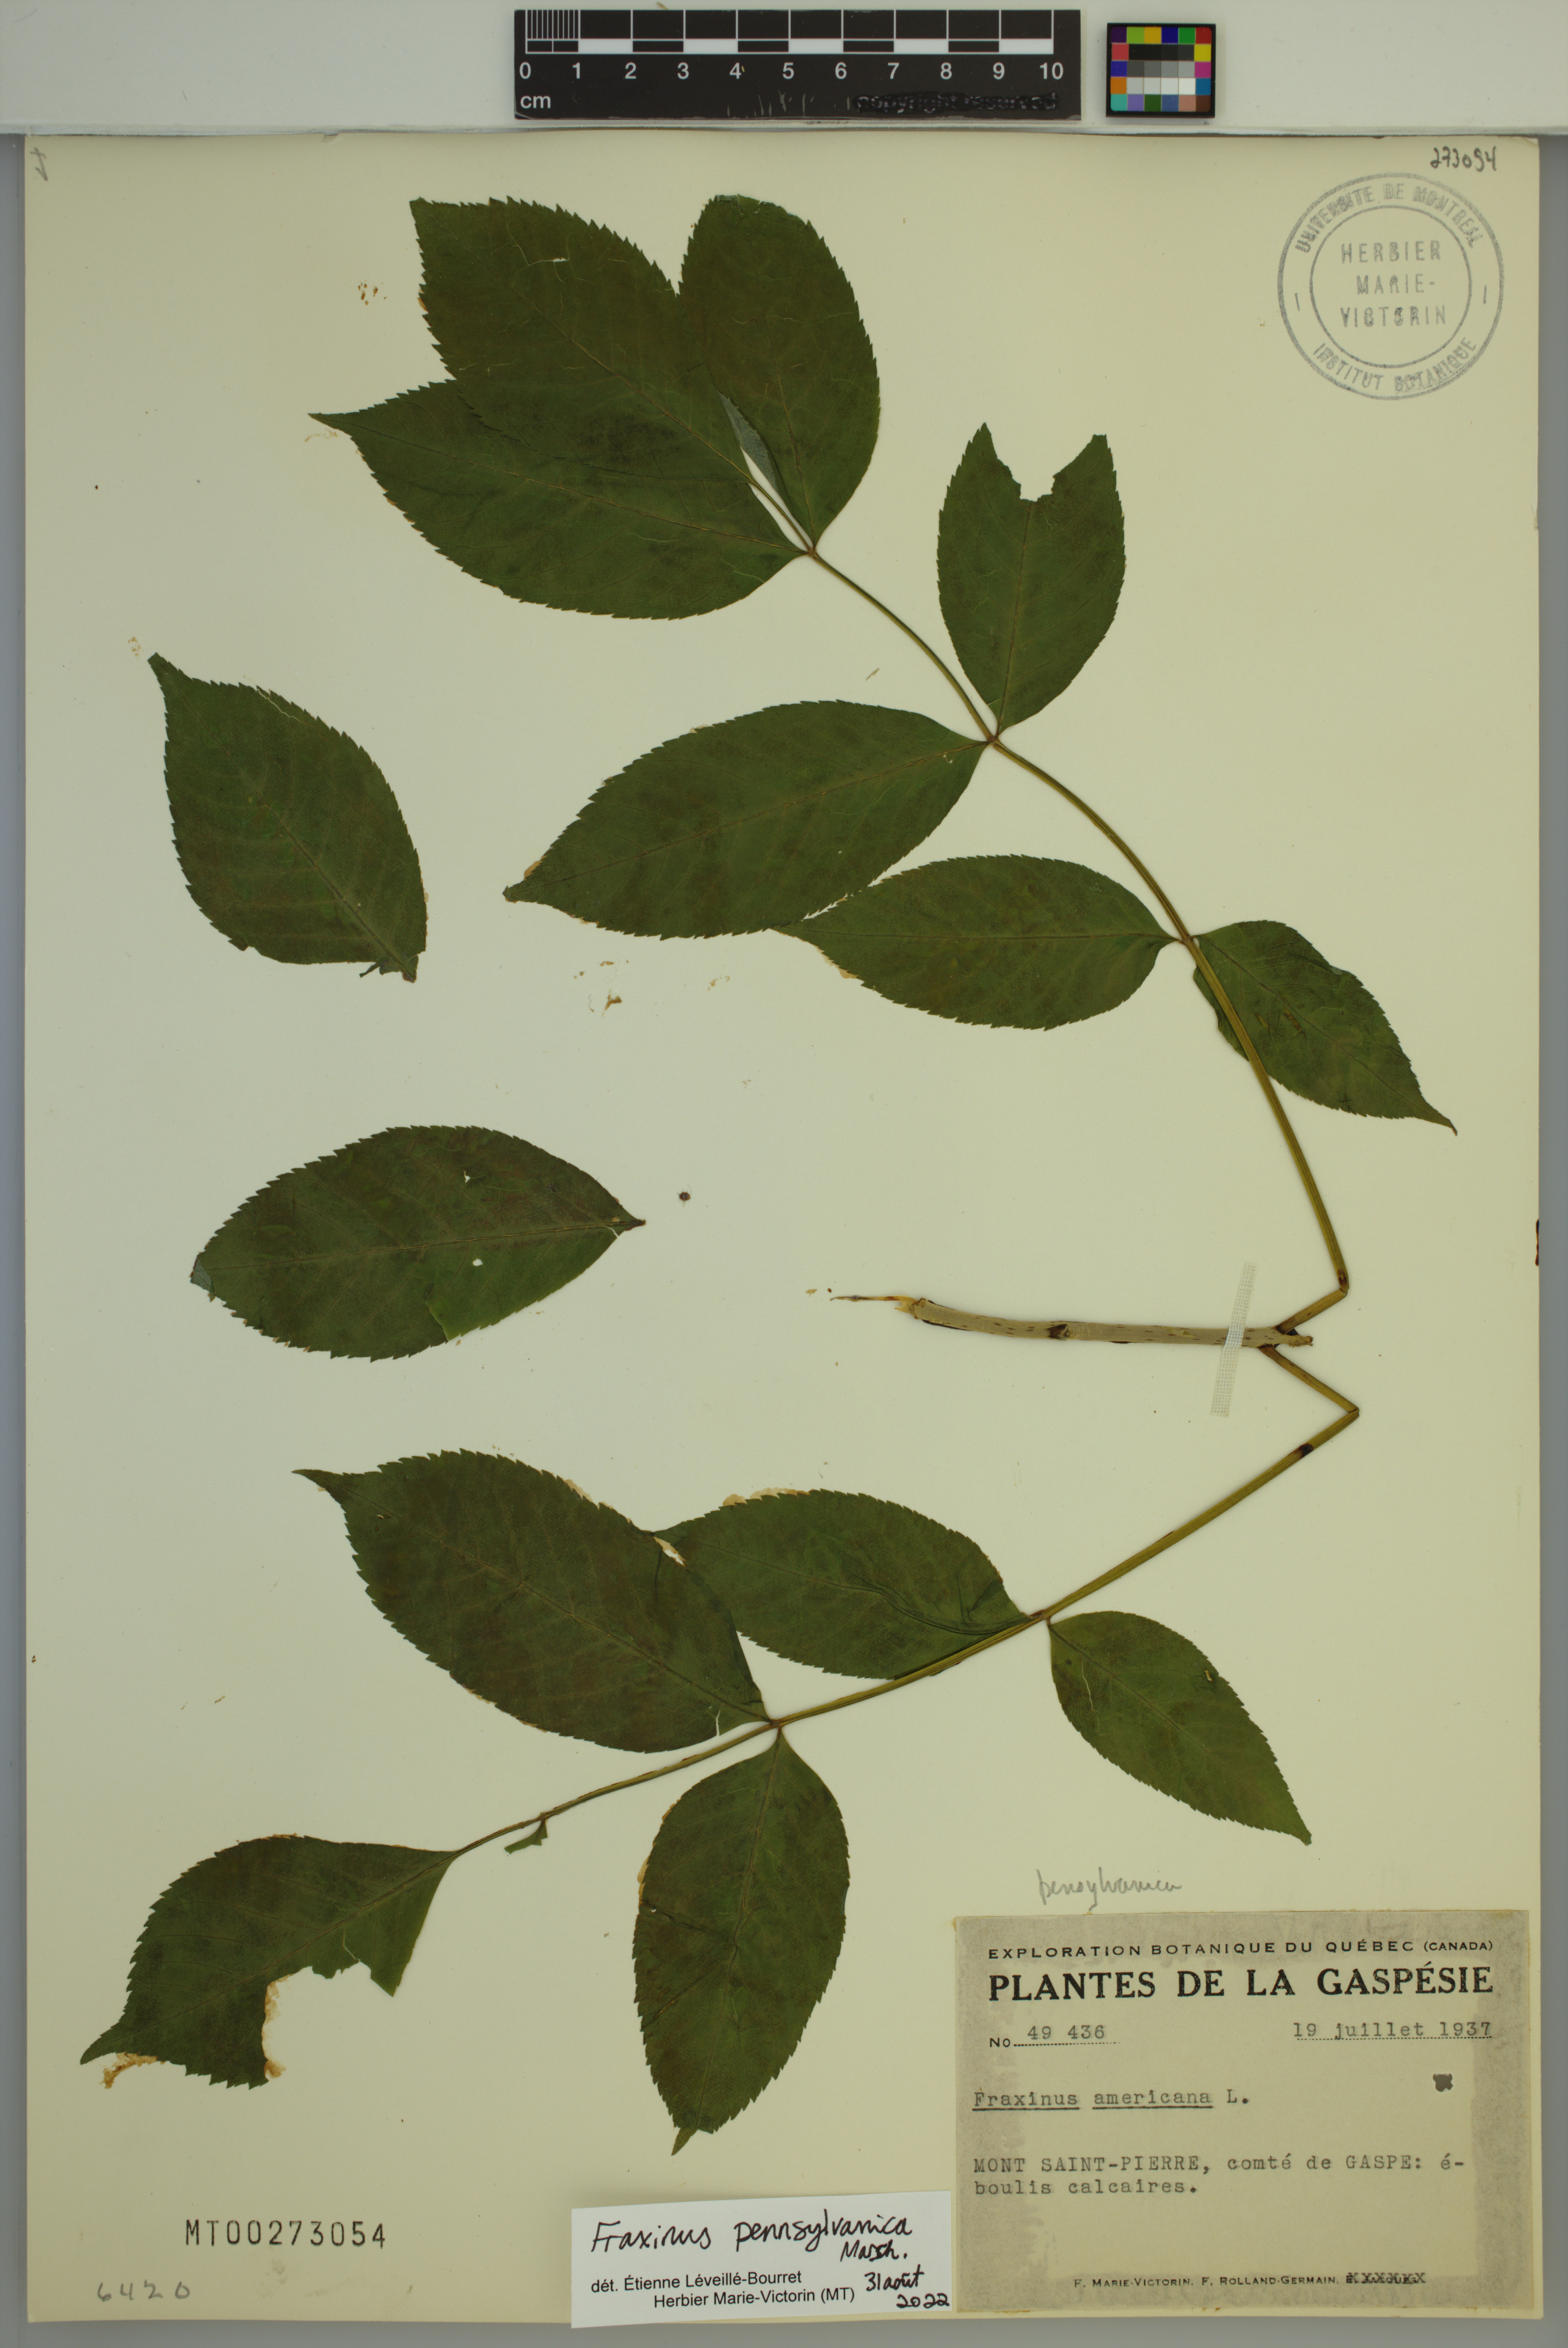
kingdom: Plantae
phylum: Tracheophyta
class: Magnoliopsida
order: Lamiales
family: Oleaceae
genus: Fraxinus
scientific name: Fraxinus nigra
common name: Black ash
